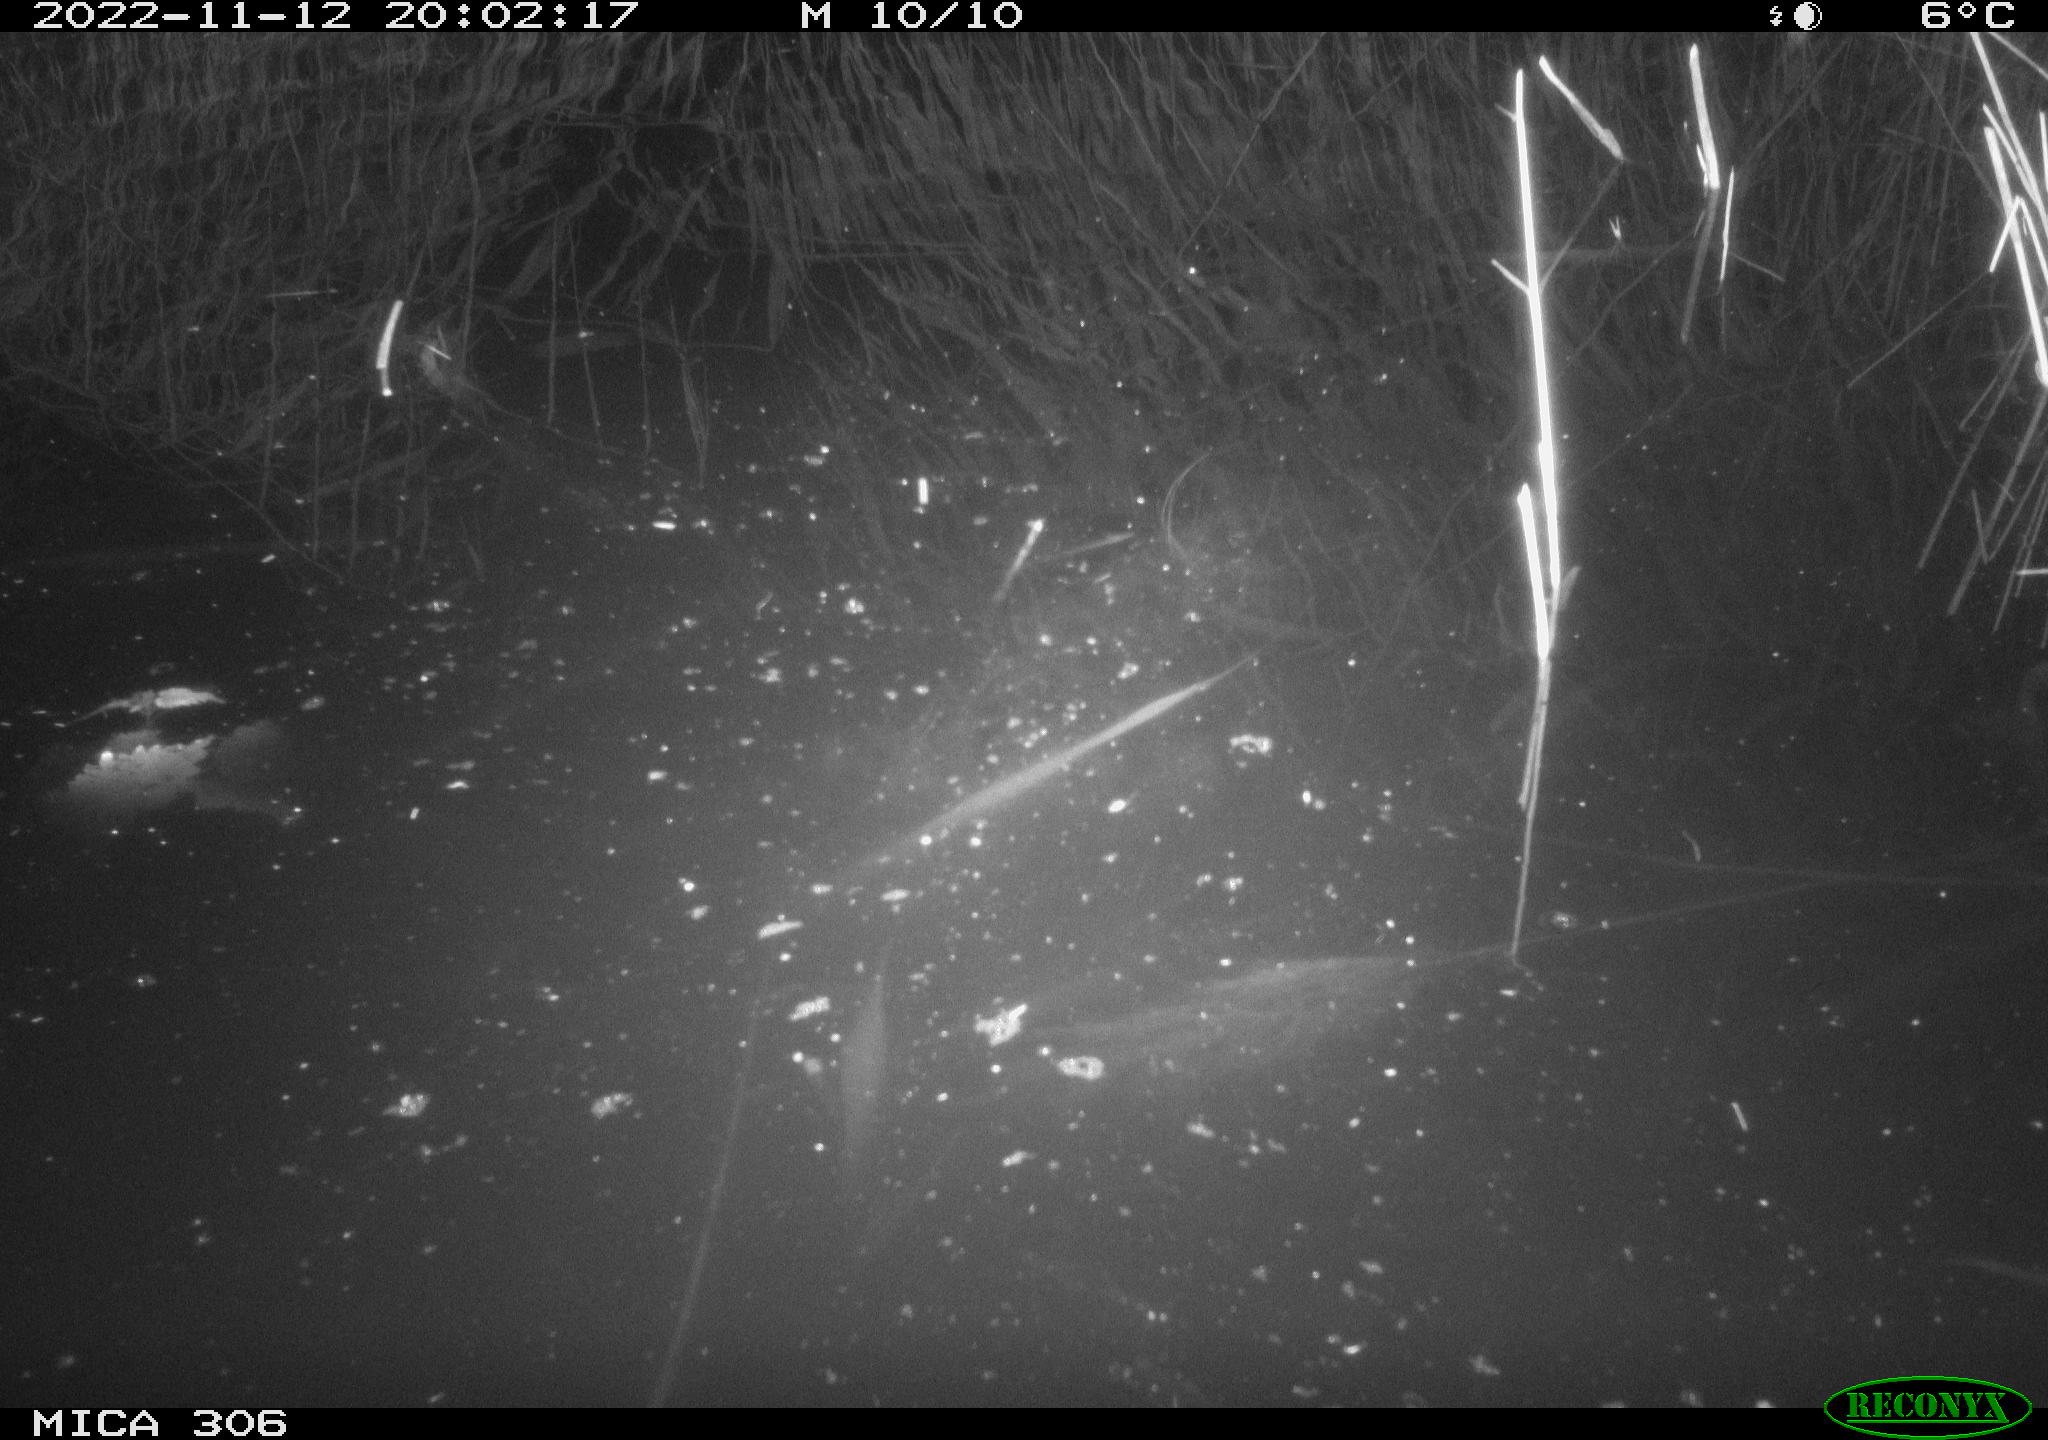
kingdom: Animalia
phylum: Chordata
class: Mammalia
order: Rodentia
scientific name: Rodentia
